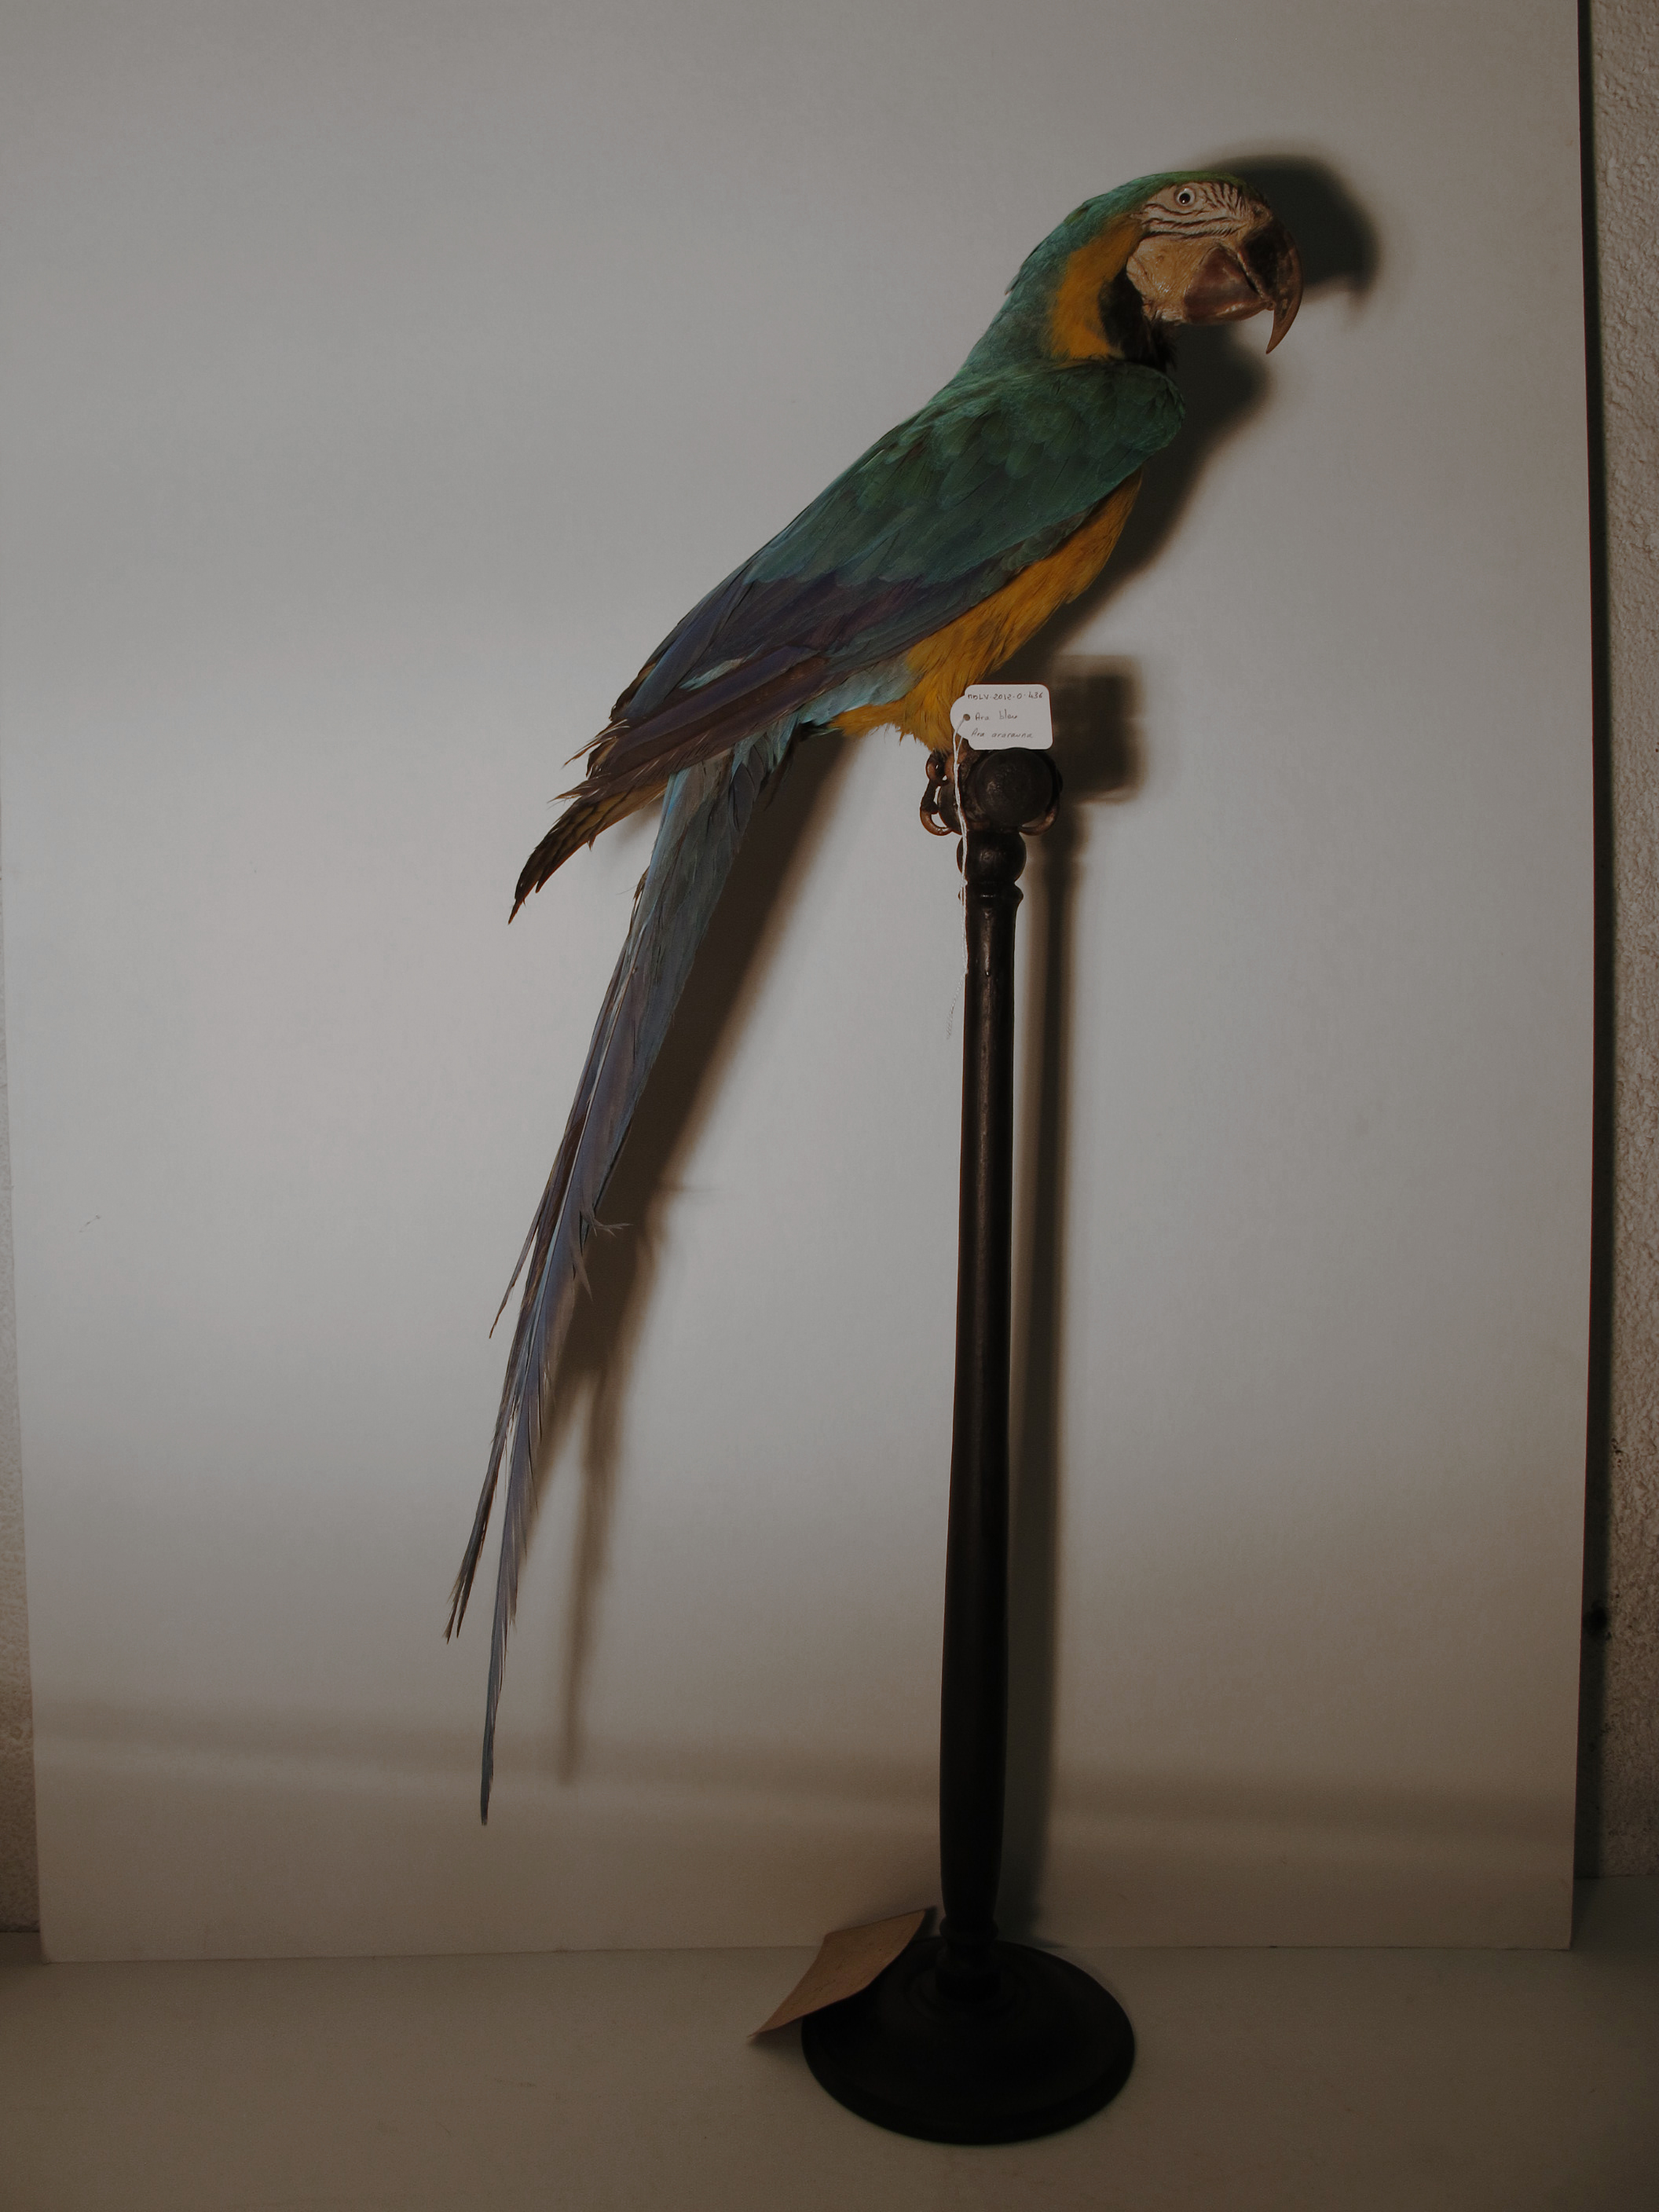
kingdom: Animalia
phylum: Chordata
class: Aves
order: Psittaciformes
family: Psittacidae
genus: Ara
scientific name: Ara ararauna
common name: Blue-and-yellow Macaw
